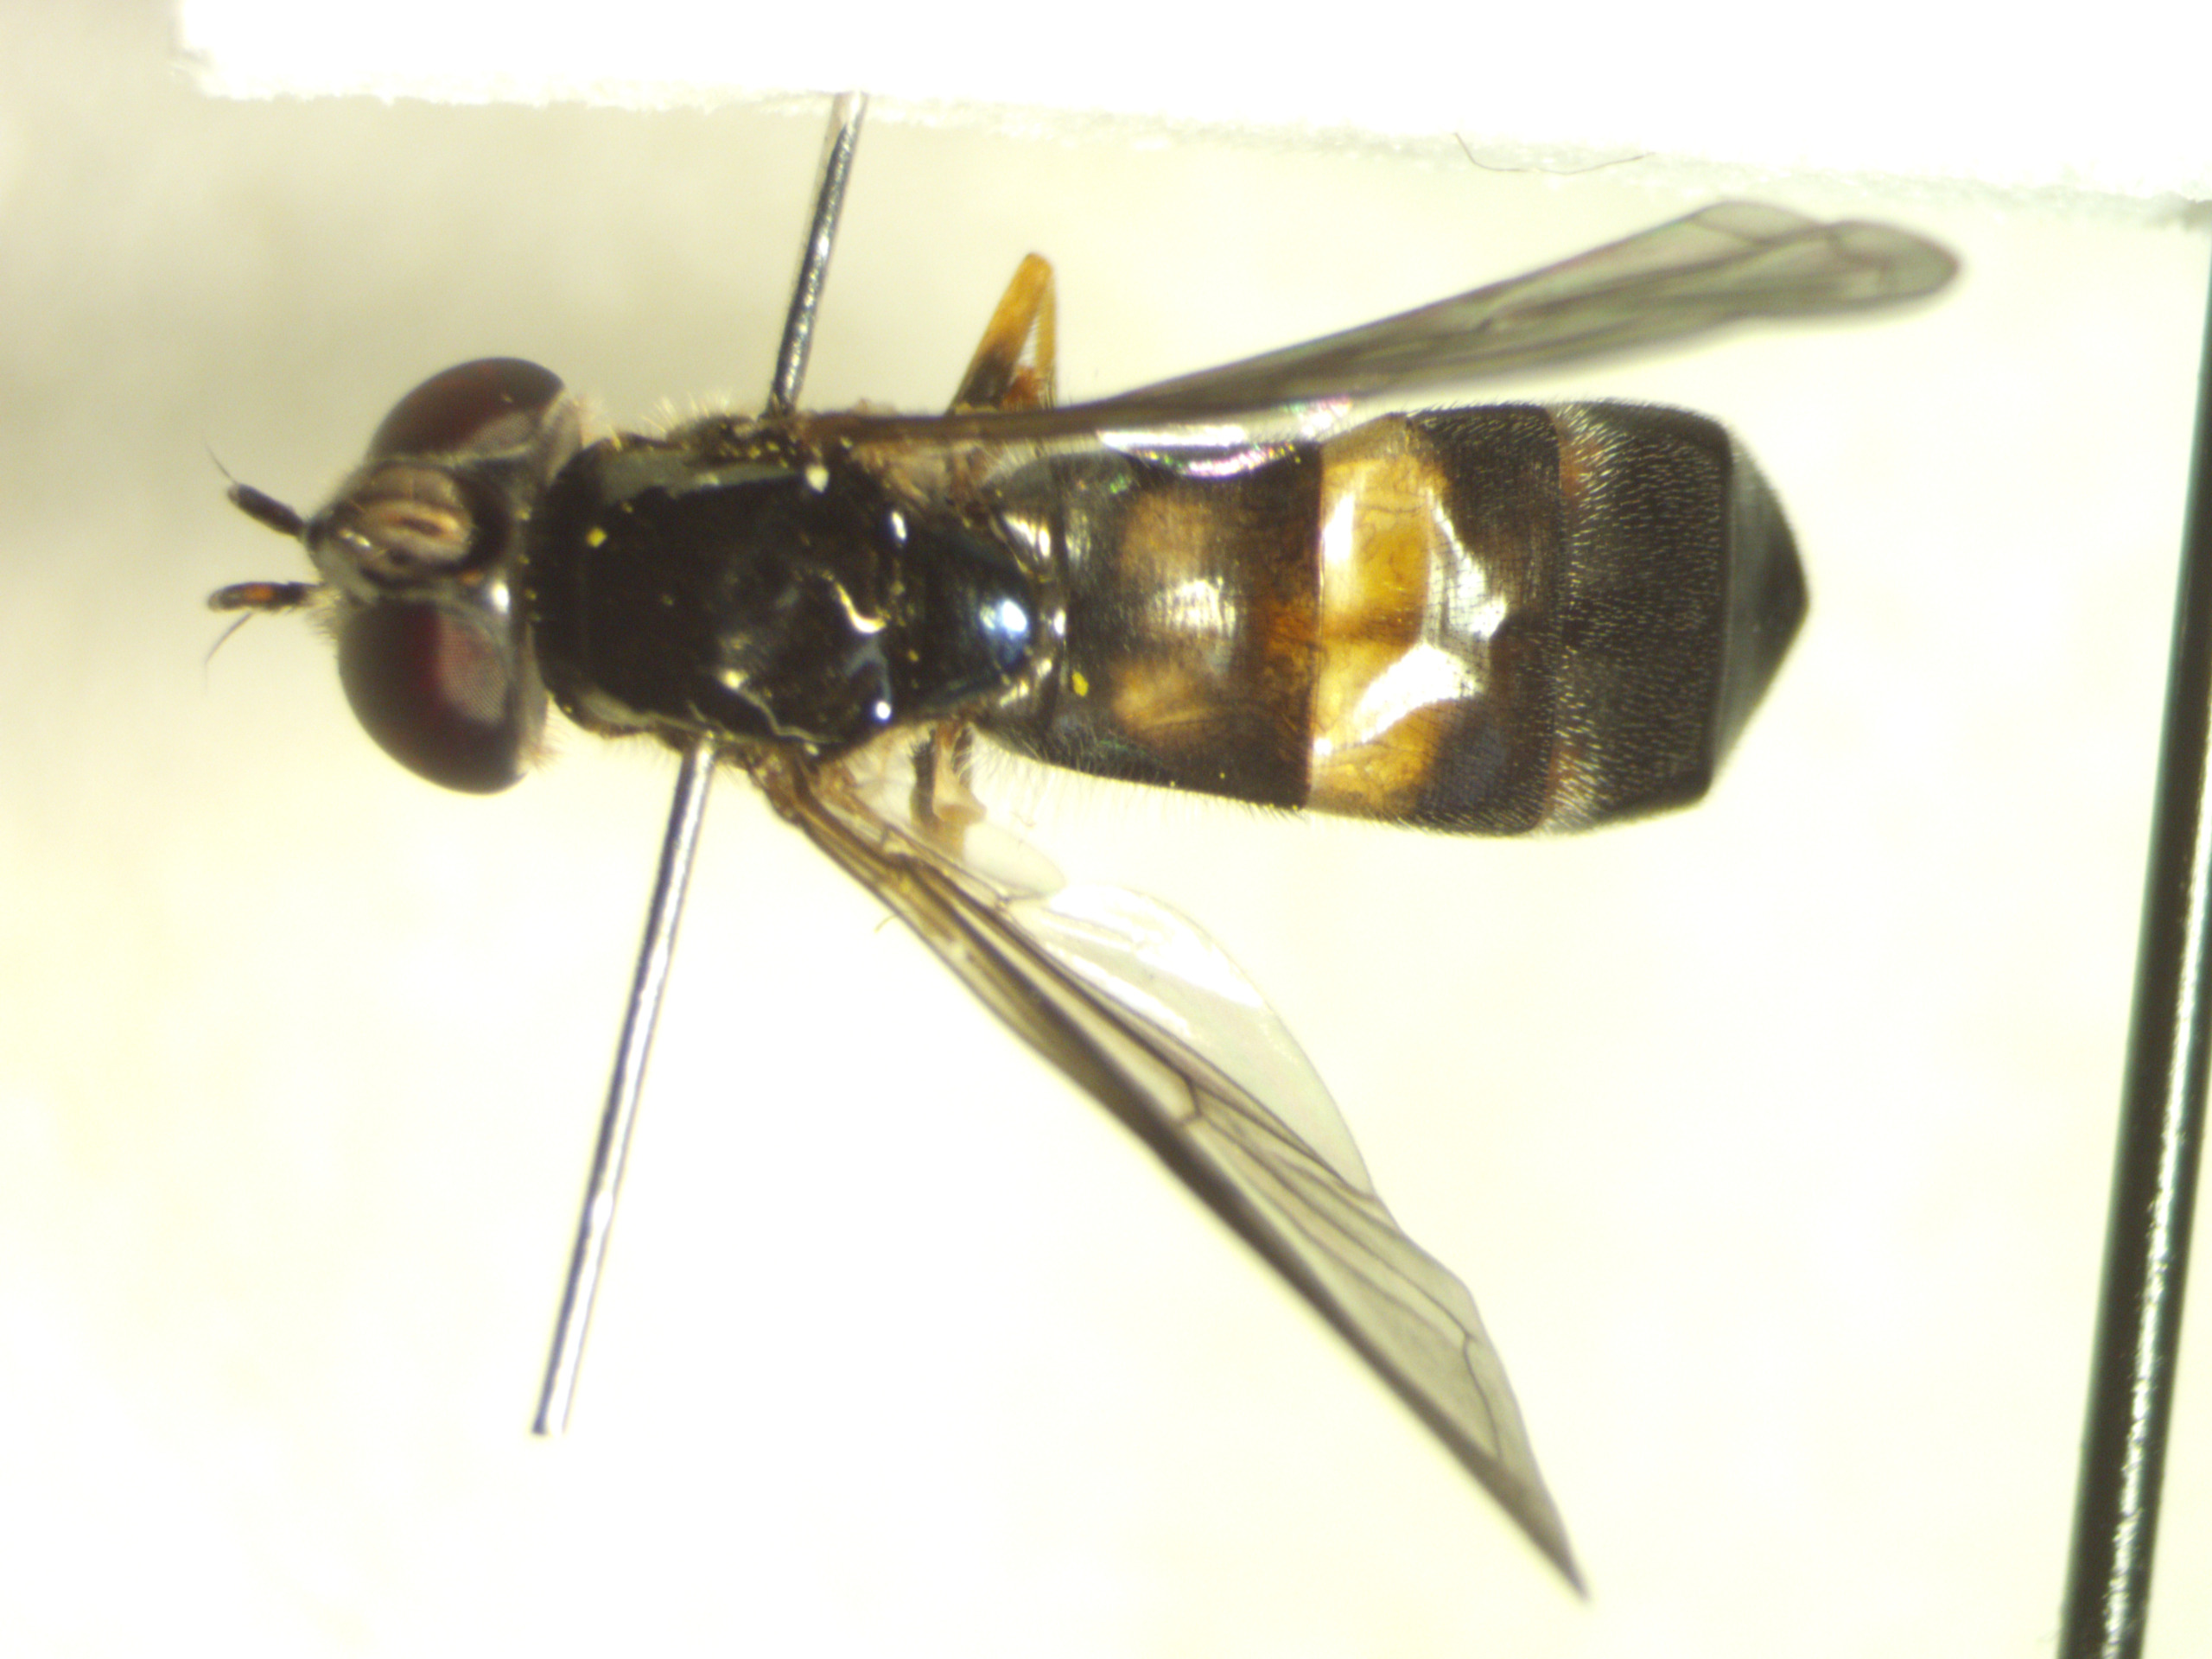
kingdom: Animalia
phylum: Arthropoda
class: Insecta
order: Diptera
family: Syrphidae
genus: Pyrophaena
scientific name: Pyrophaena rosarum
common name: Toplettet ildsvirreflue
